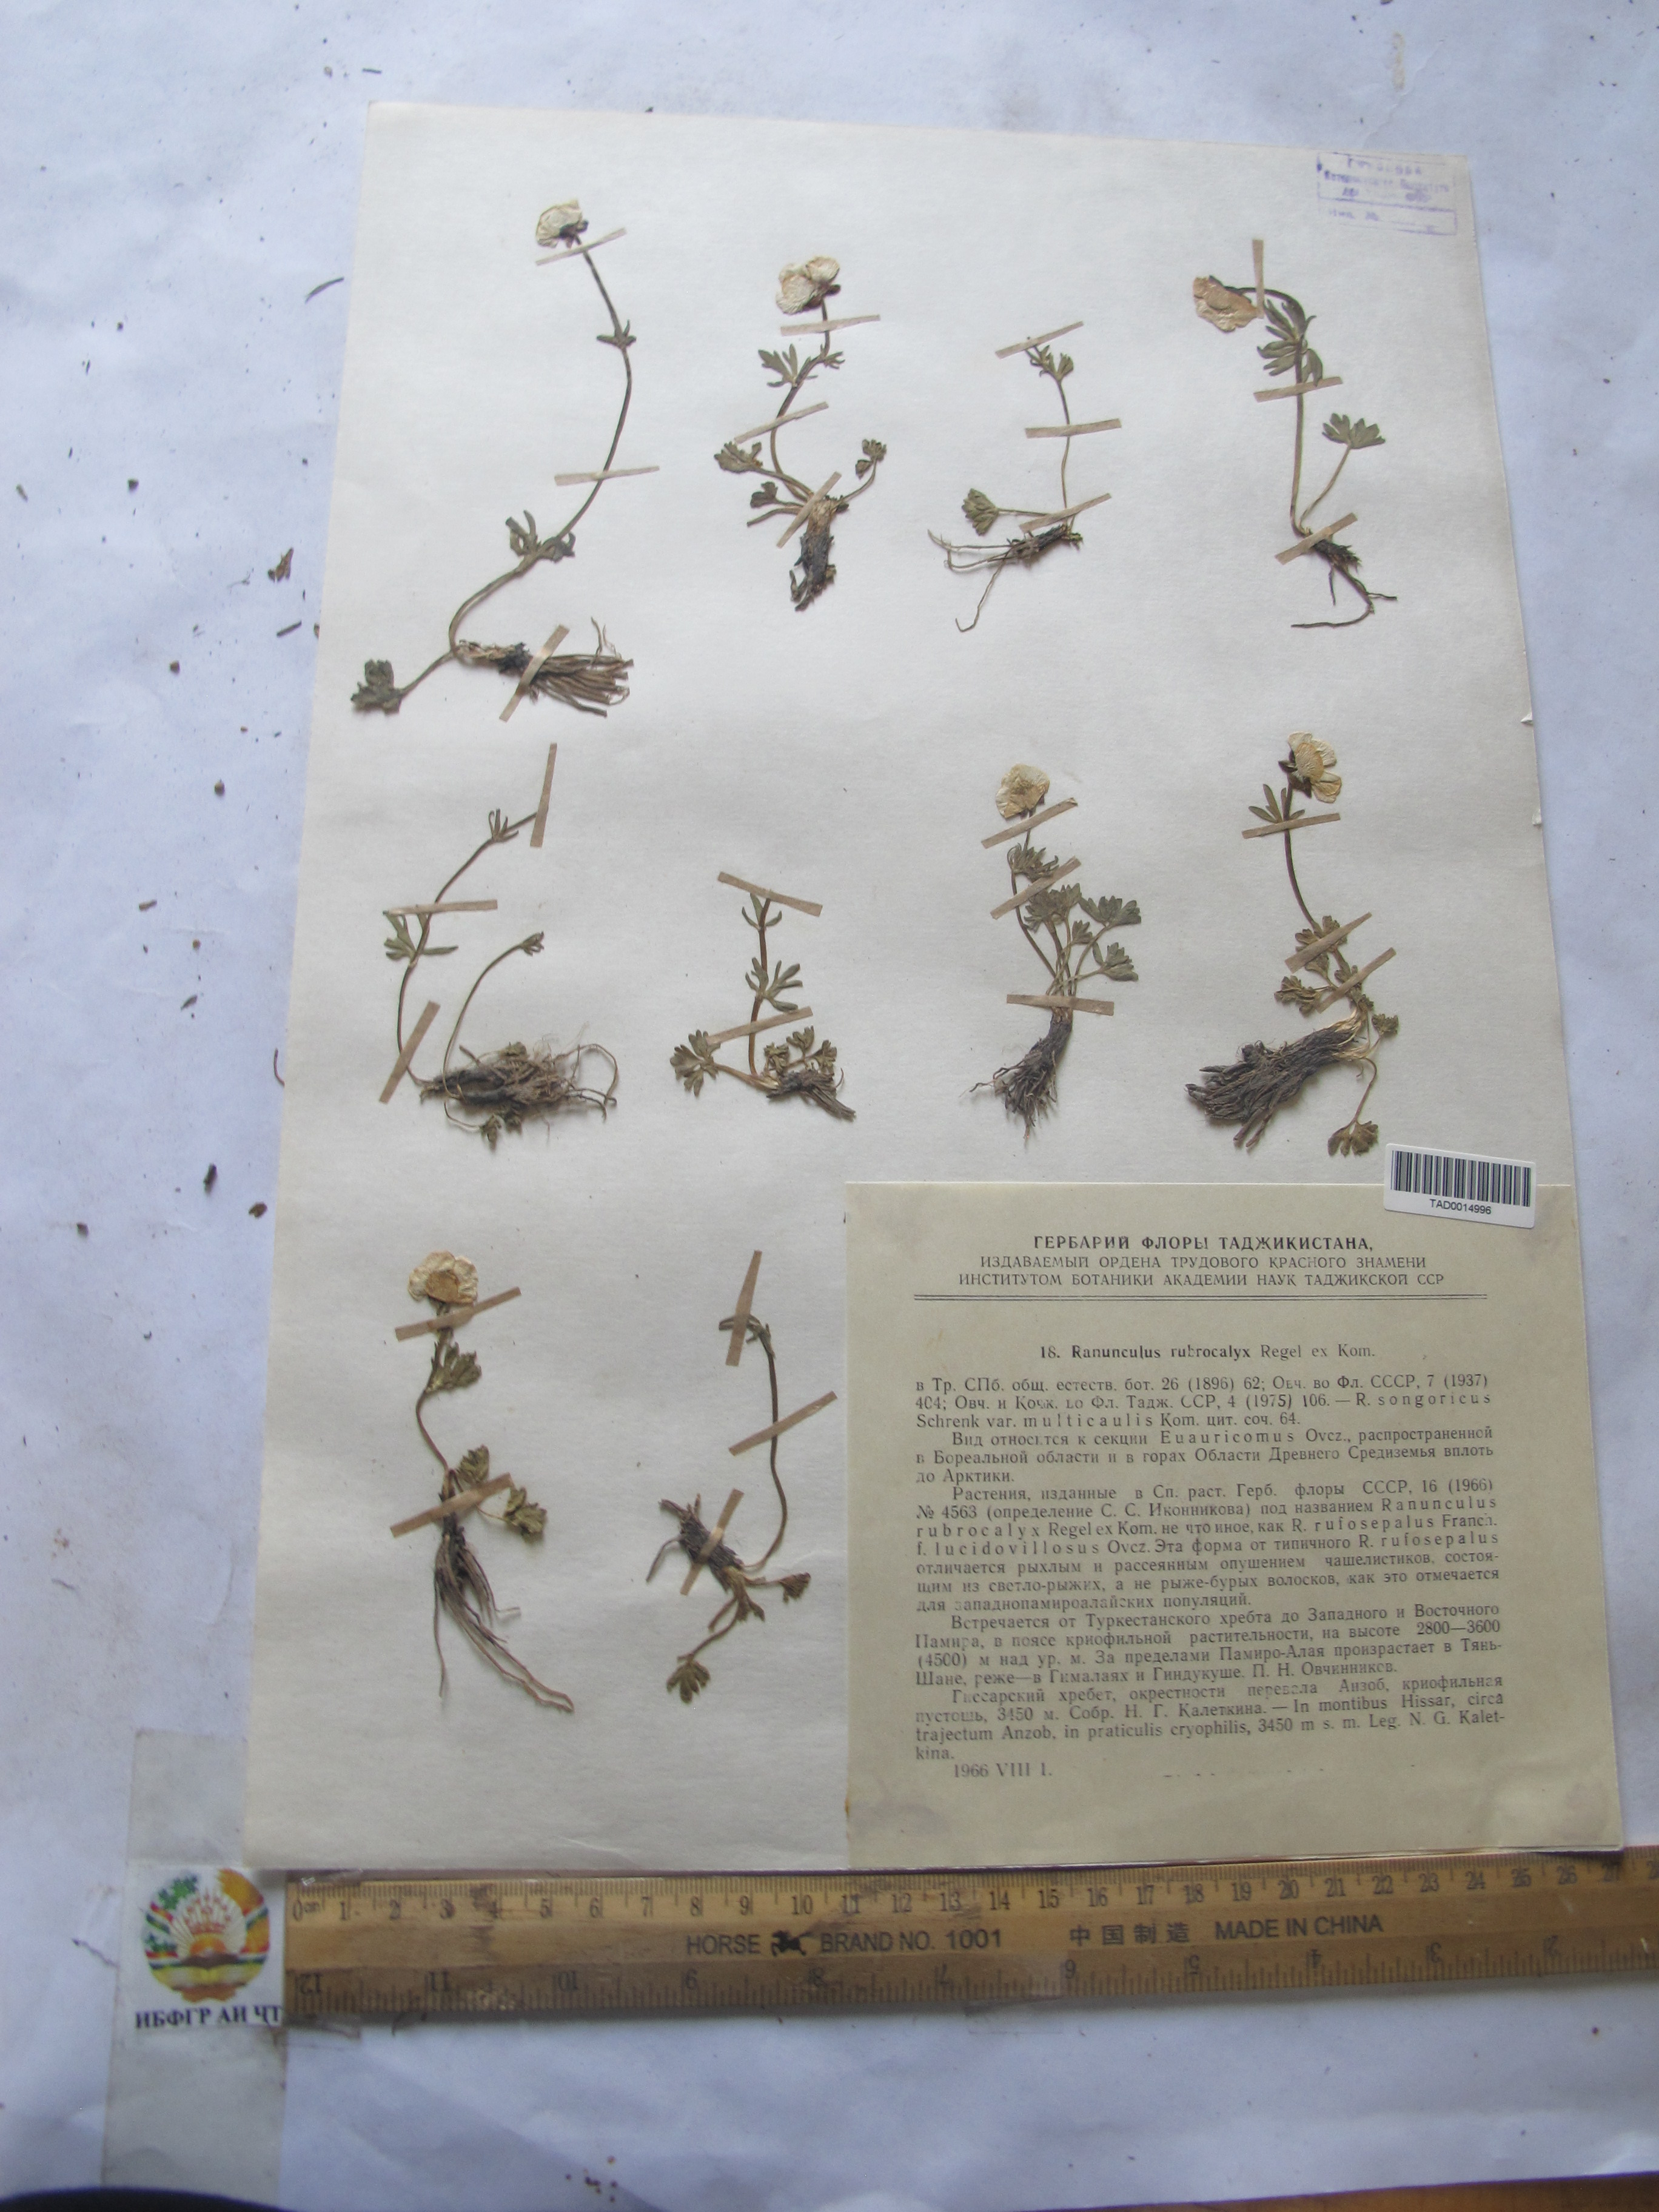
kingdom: Plantae
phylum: Tracheophyta
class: Magnoliopsida
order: Ranunculales
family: Ranunculaceae
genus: Ranunculus
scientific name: Ranunculus rubrocalyx
